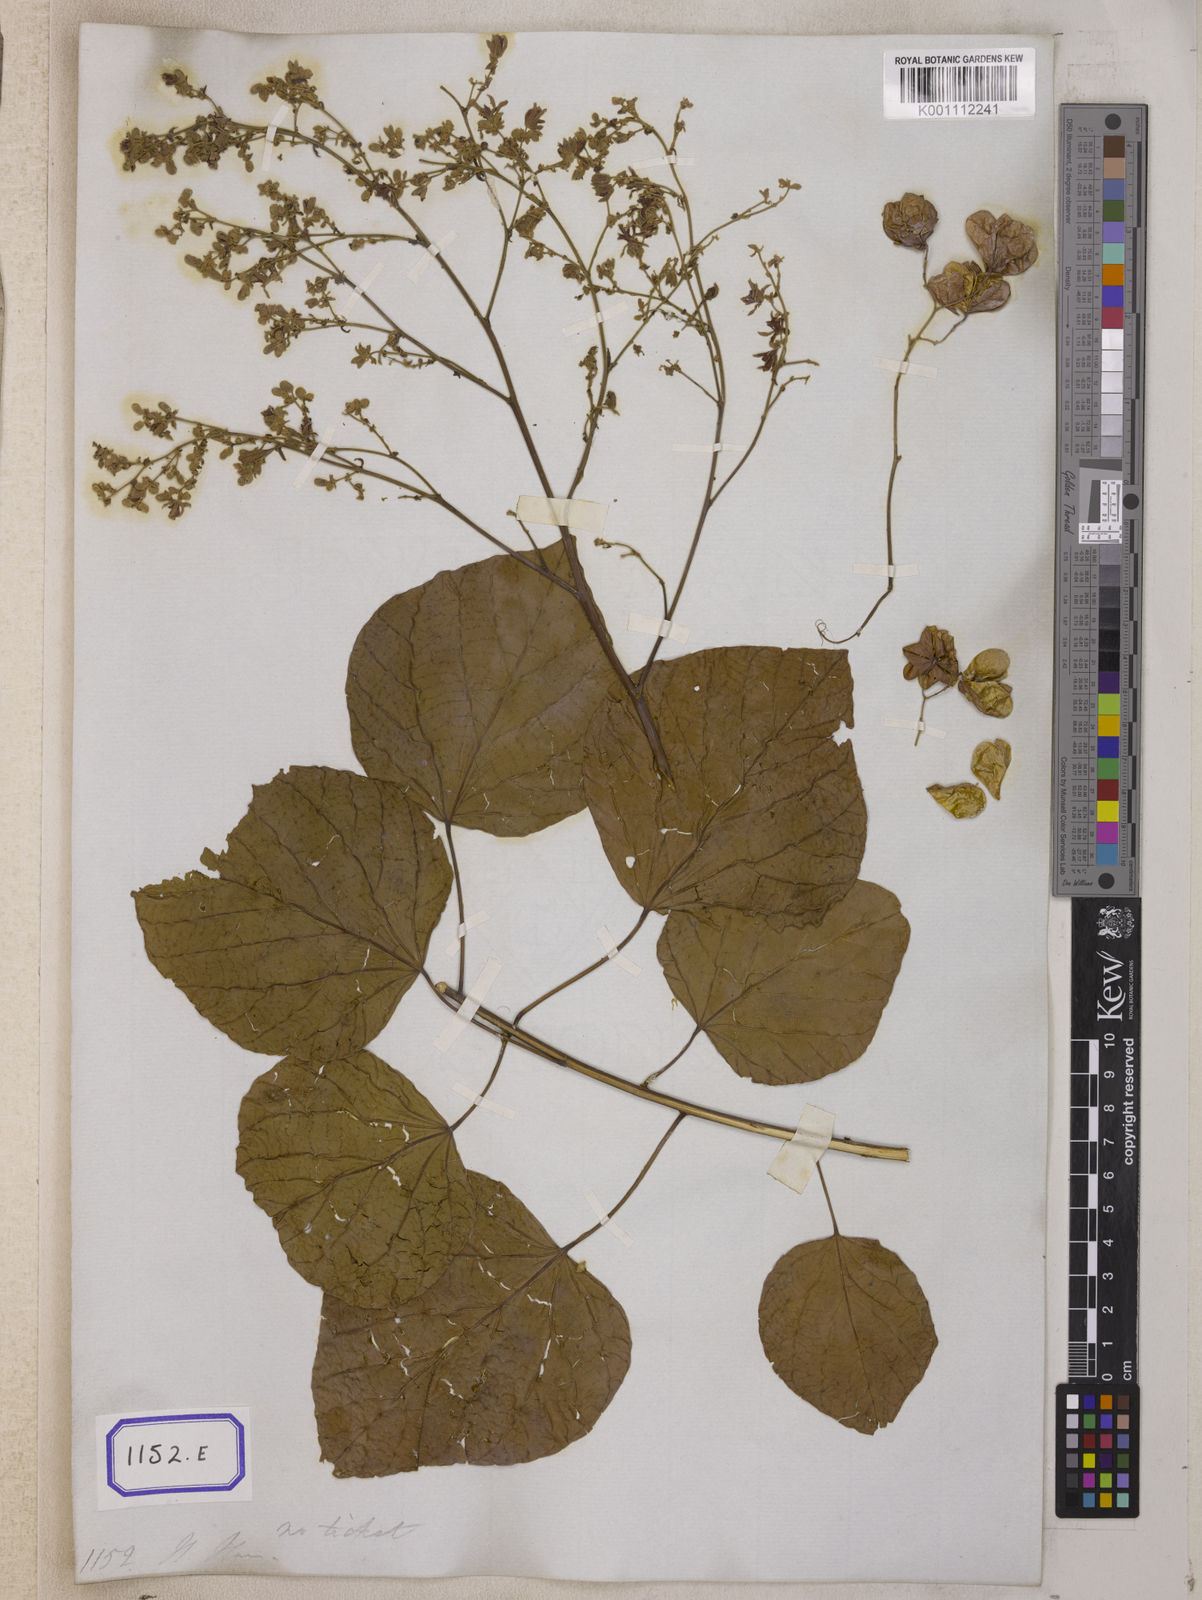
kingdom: Plantae
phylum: Tracheophyta
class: Magnoliopsida
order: Malvales
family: Malvaceae
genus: Kleinhovia
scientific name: Kleinhovia hospita
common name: Guest-tree
